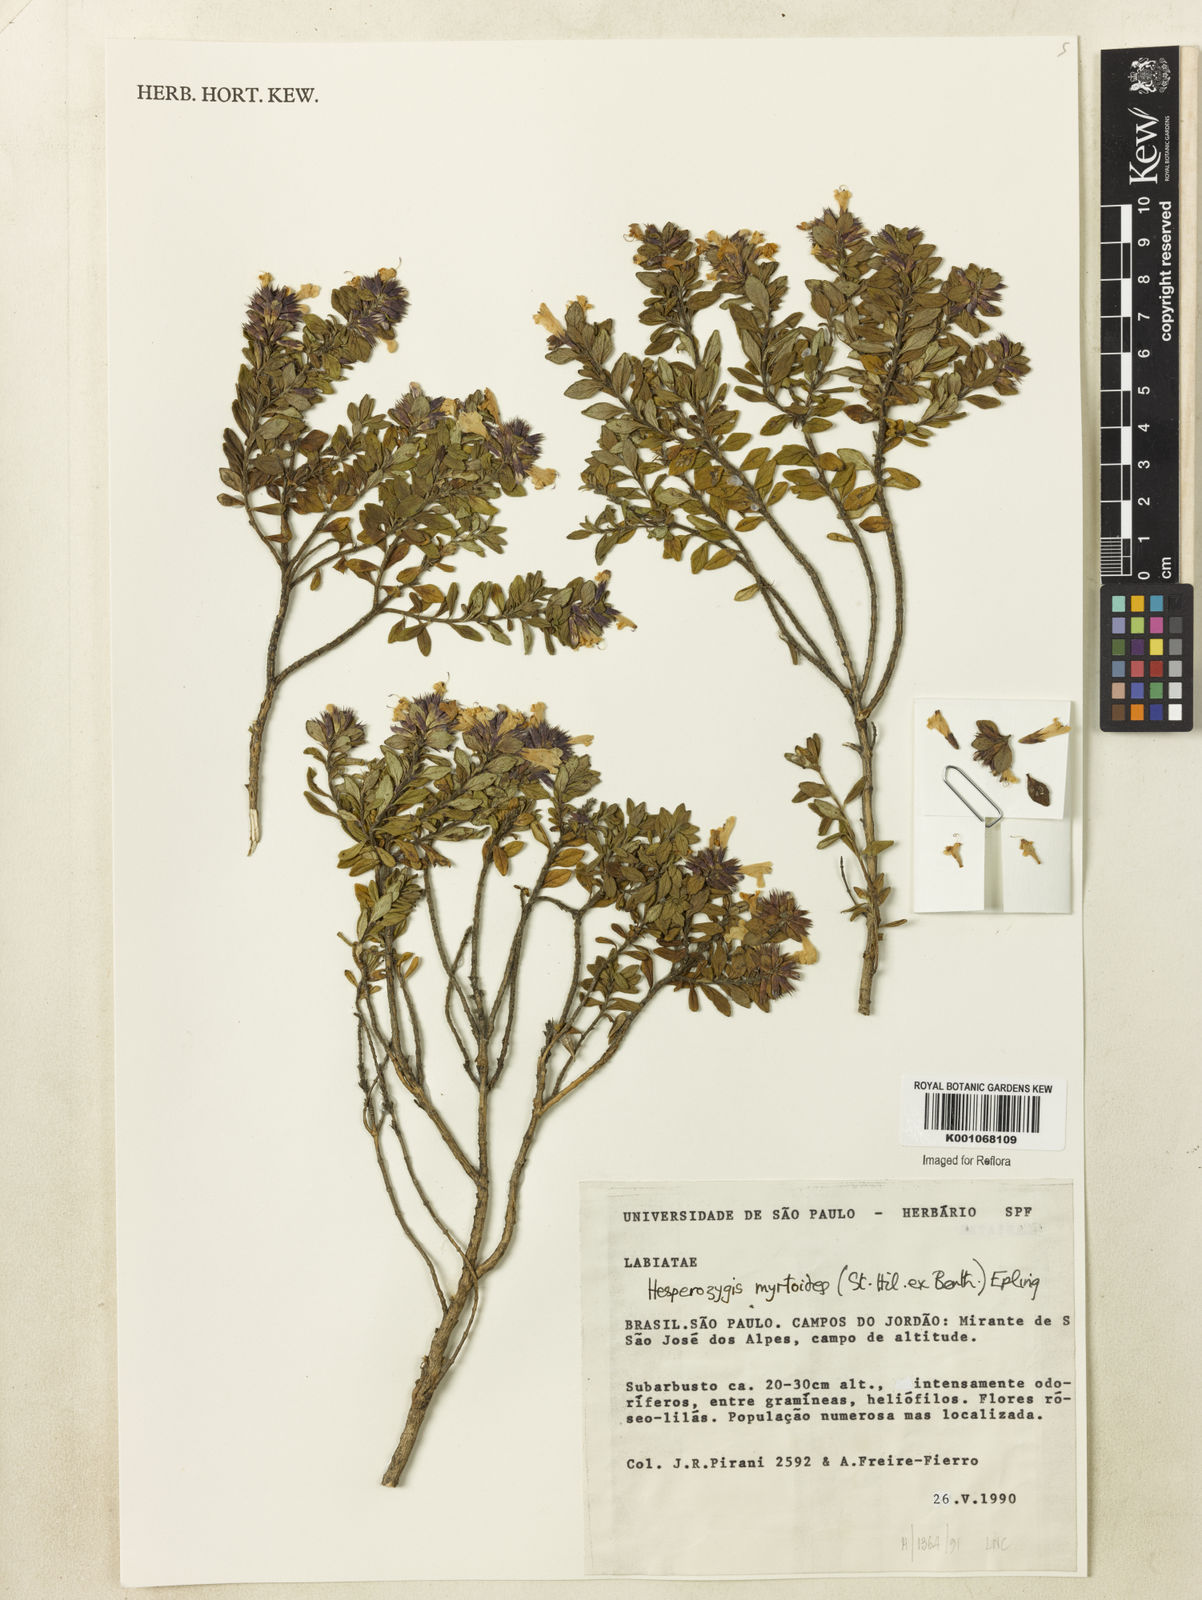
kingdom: Plantae
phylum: Tracheophyta
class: Magnoliopsida
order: Lamiales
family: Lamiaceae
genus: Hesperozygis
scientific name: Hesperozygis myrtoides
